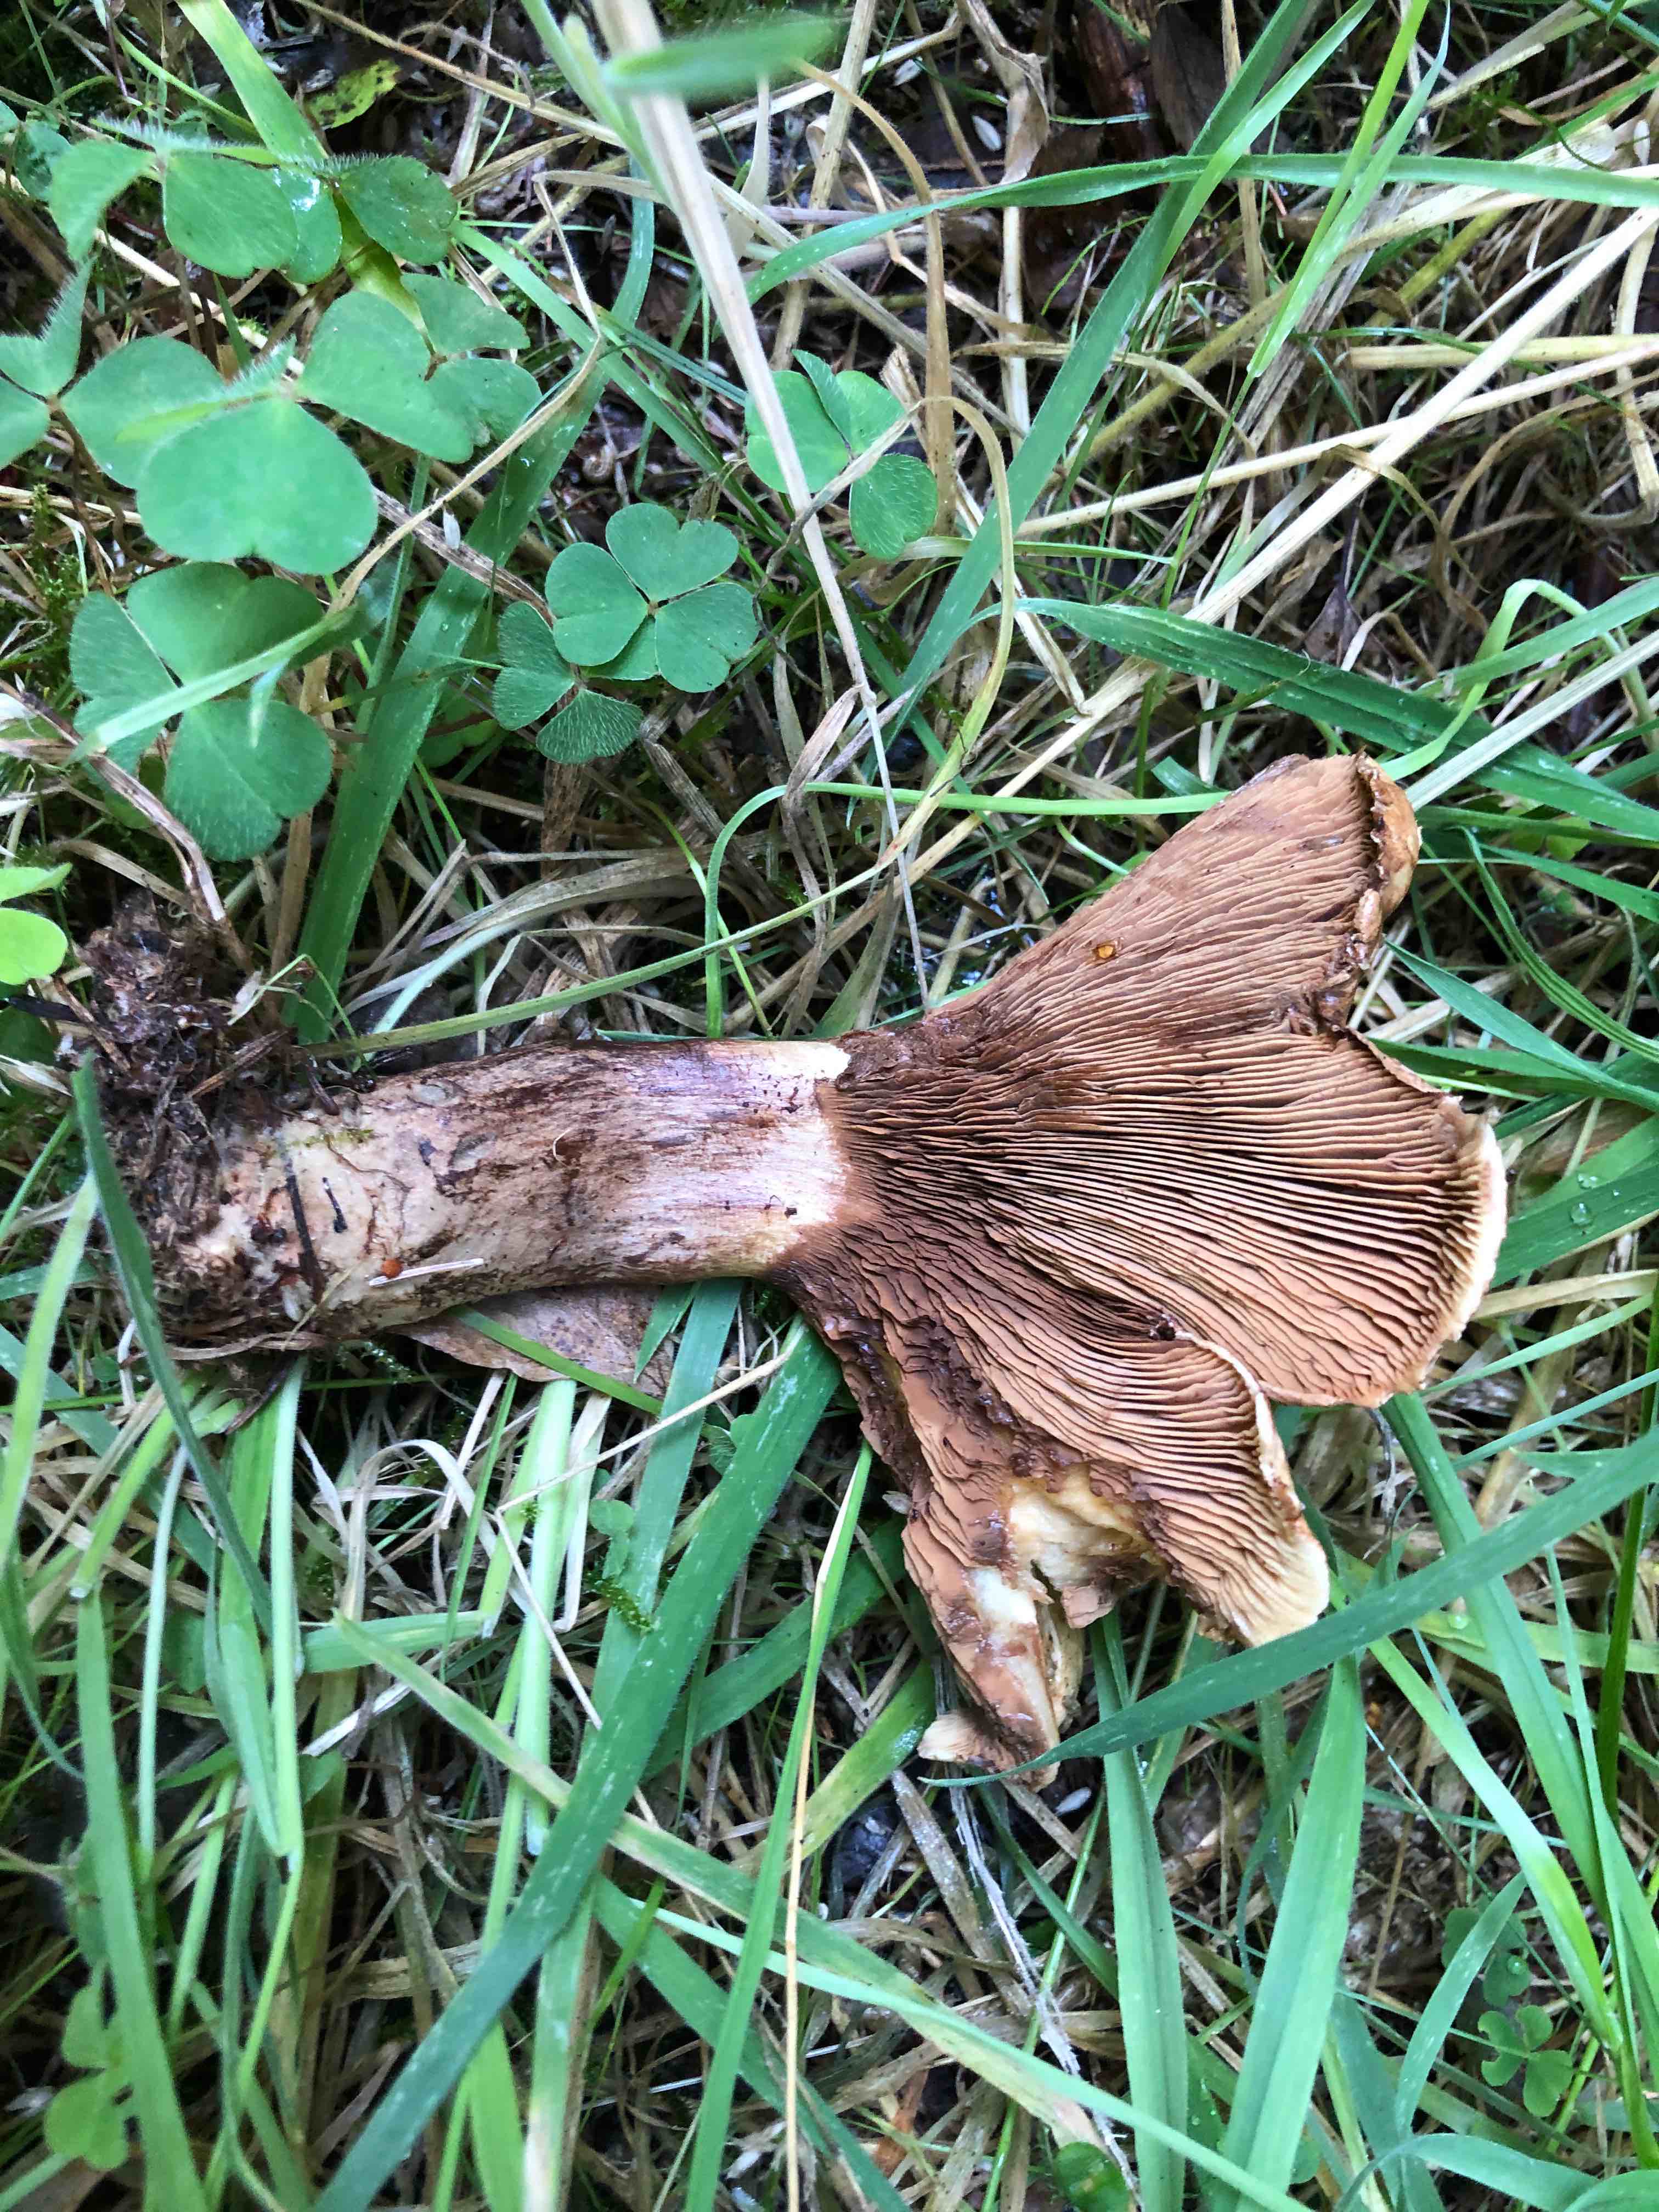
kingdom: Fungi
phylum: Basidiomycota
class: Agaricomycetes
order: Boletales
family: Paxillaceae
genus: Paxillus
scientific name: Paxillus involutus
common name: almindelig netbladhat
